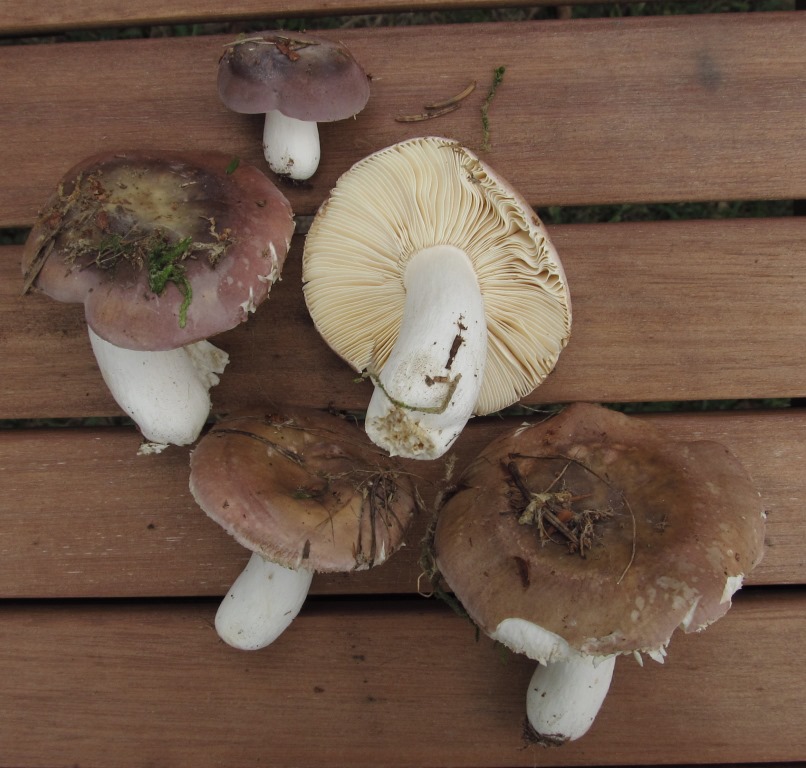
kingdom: Fungi
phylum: Basidiomycota
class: Agaricomycetes
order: Russulales
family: Russulaceae
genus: Russula
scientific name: Russula turci
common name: jod-skørhat
